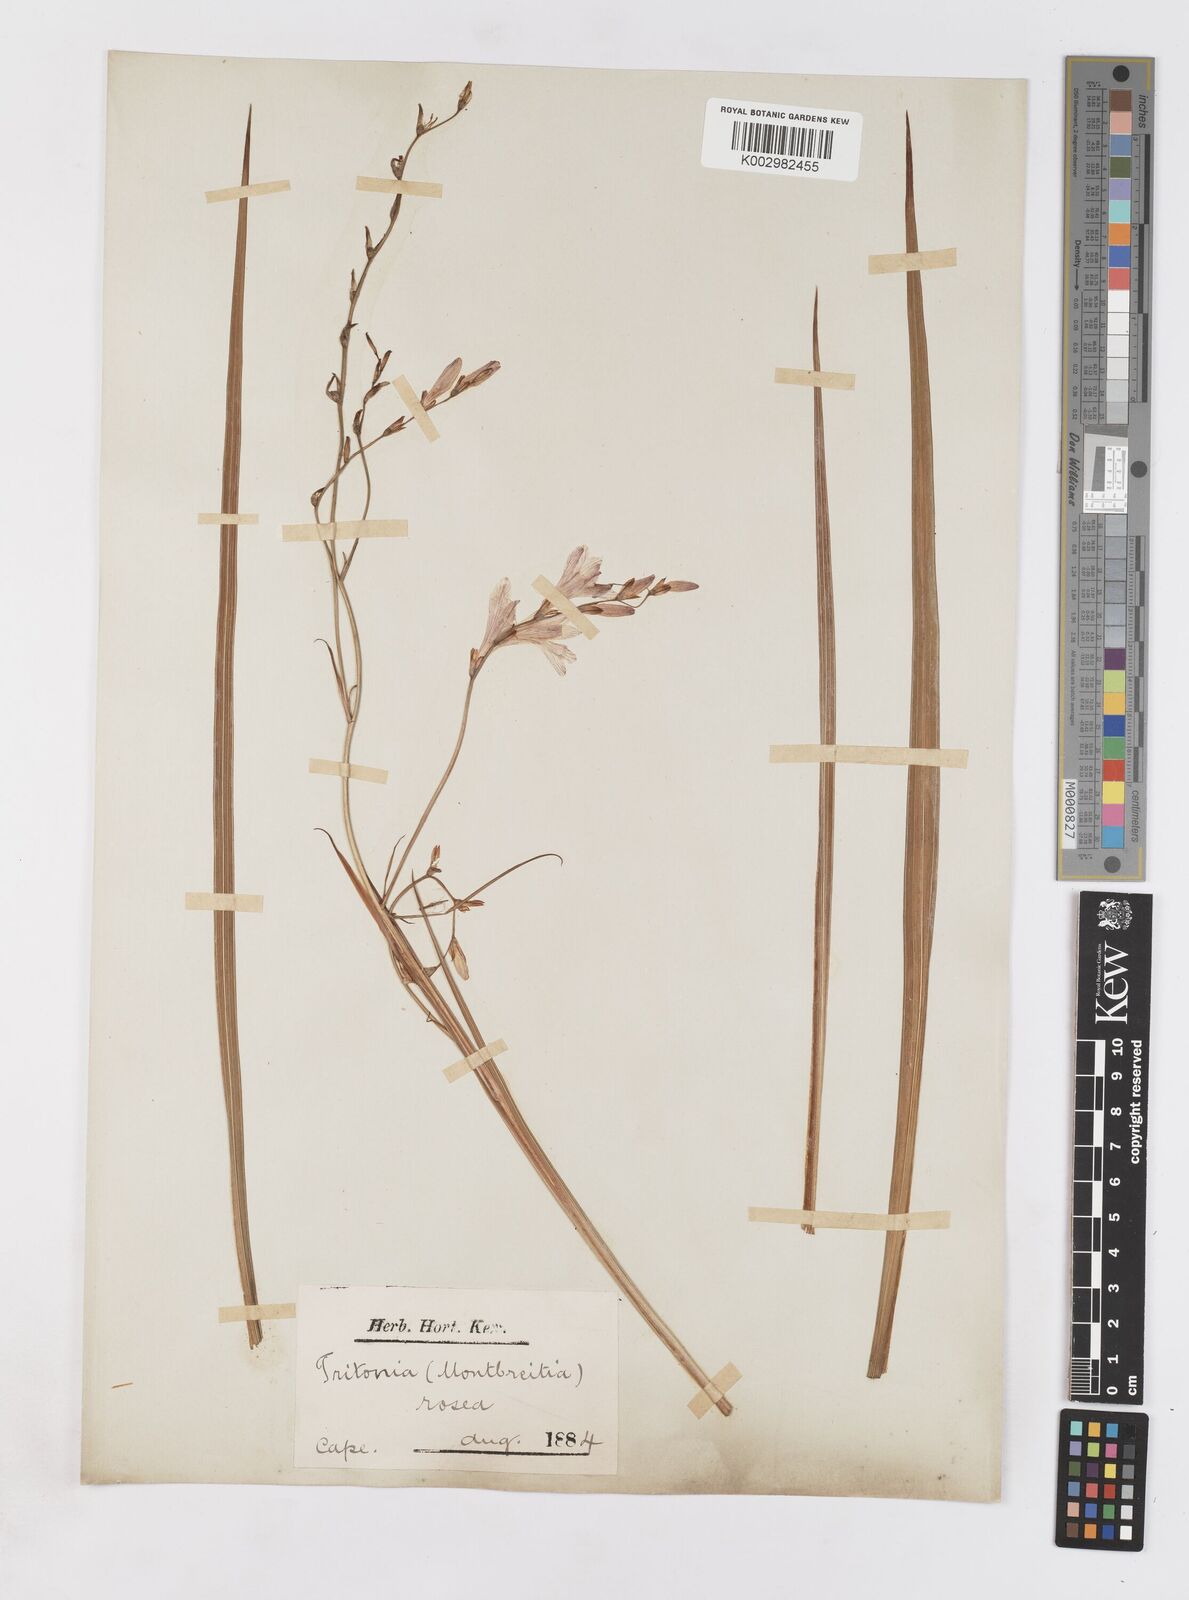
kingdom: Plantae
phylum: Tracheophyta
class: Liliopsida
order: Asparagales
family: Iridaceae
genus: Tritonia
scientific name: Tritonia disticha
